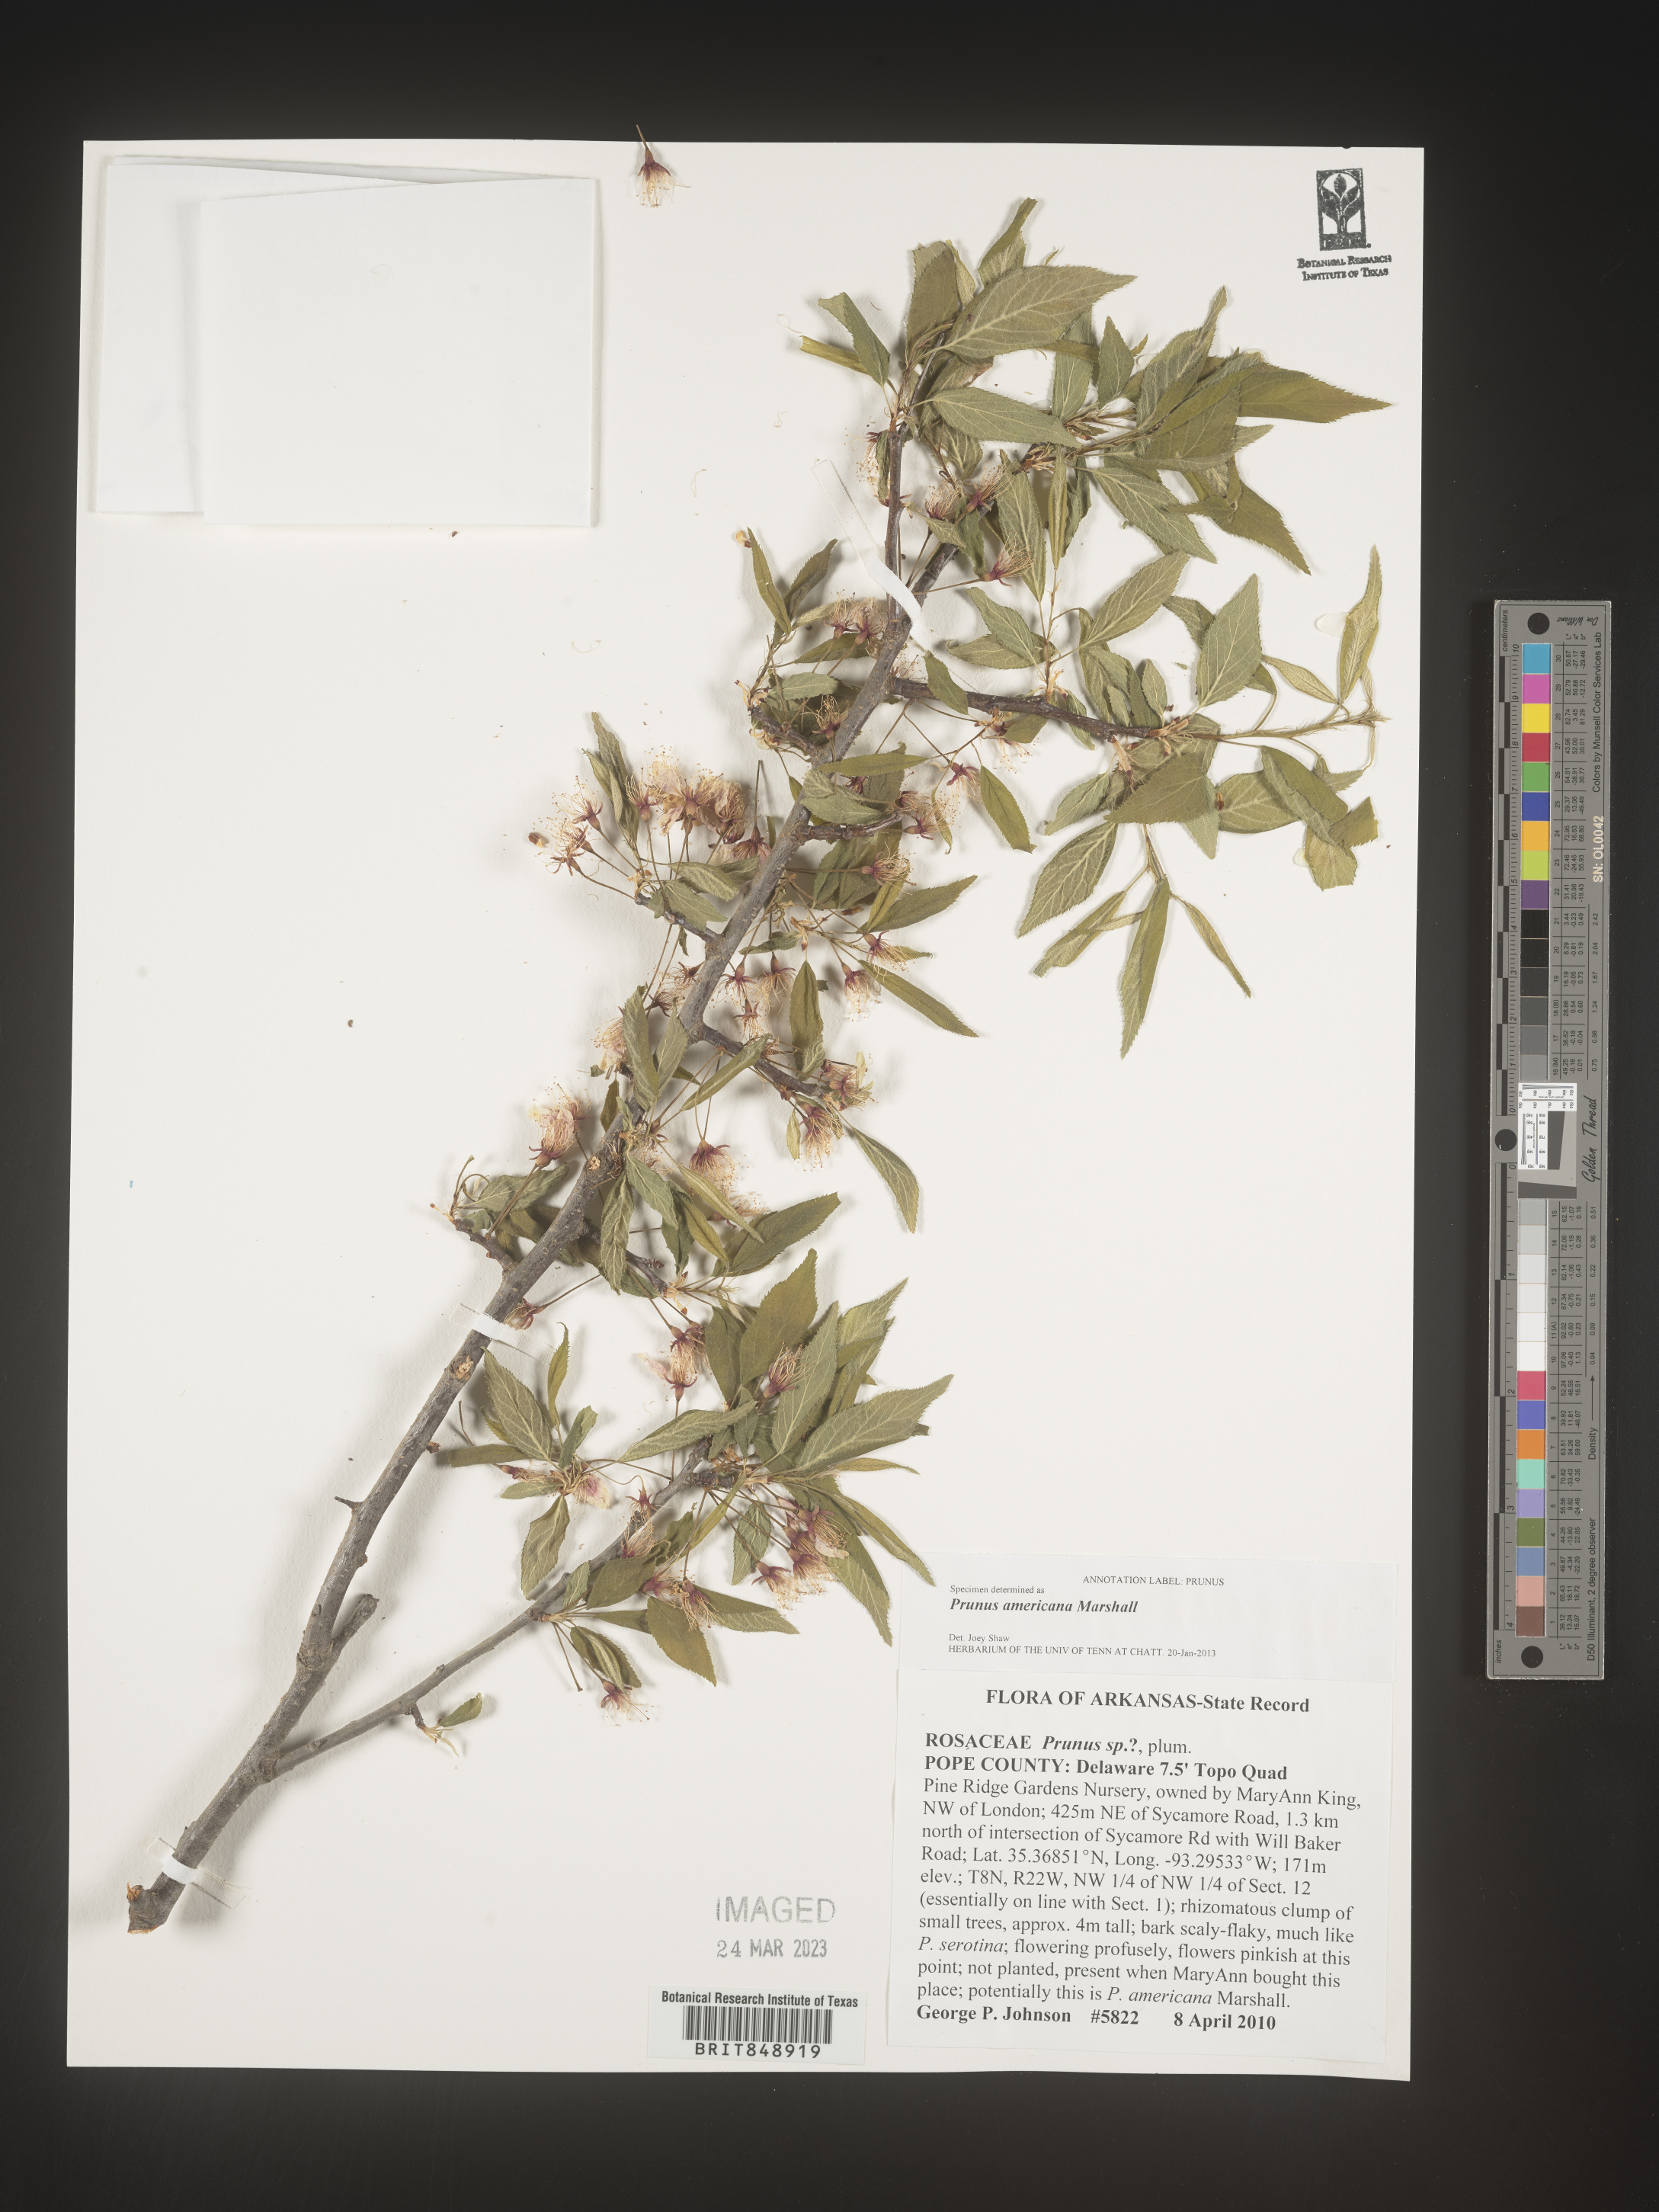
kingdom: Plantae
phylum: Tracheophyta
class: Magnoliopsida
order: Rosales
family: Rosaceae
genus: Prunus
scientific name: Prunus americana
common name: American plum
